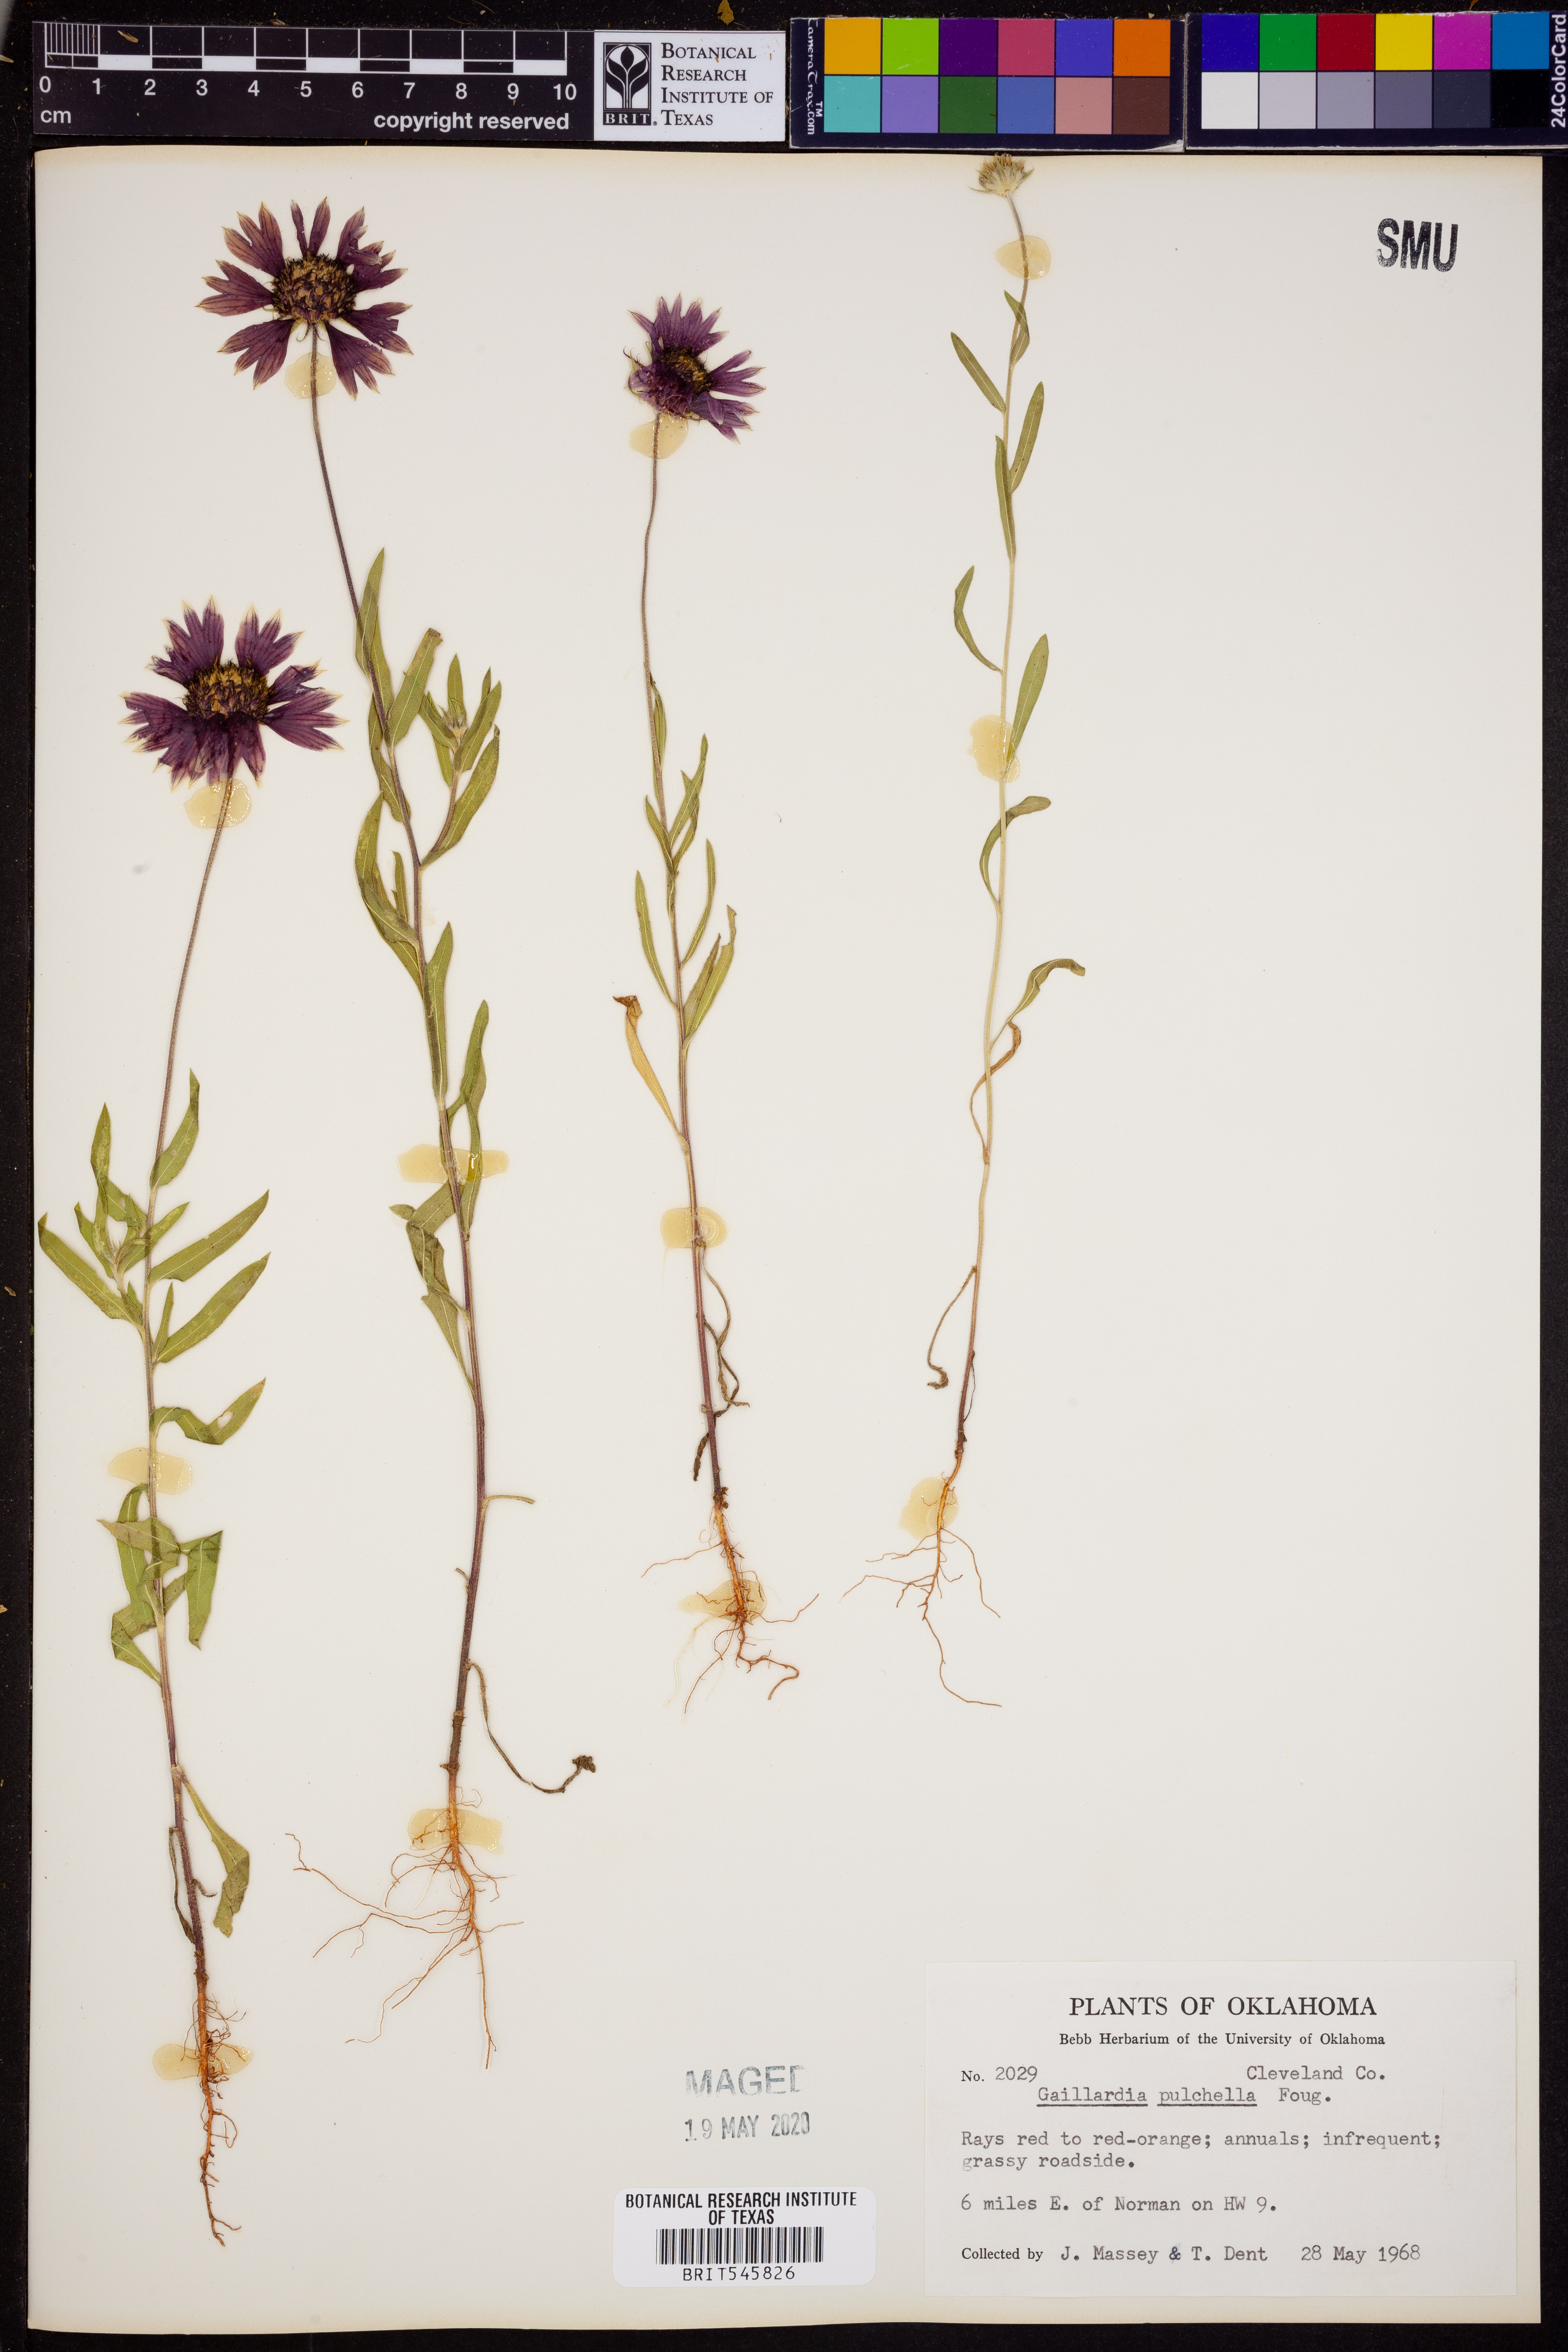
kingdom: Plantae
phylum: Tracheophyta
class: Magnoliopsida
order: Asterales
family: Asteraceae
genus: Gaillardia
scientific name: Gaillardia pulchella
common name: Firewheel
